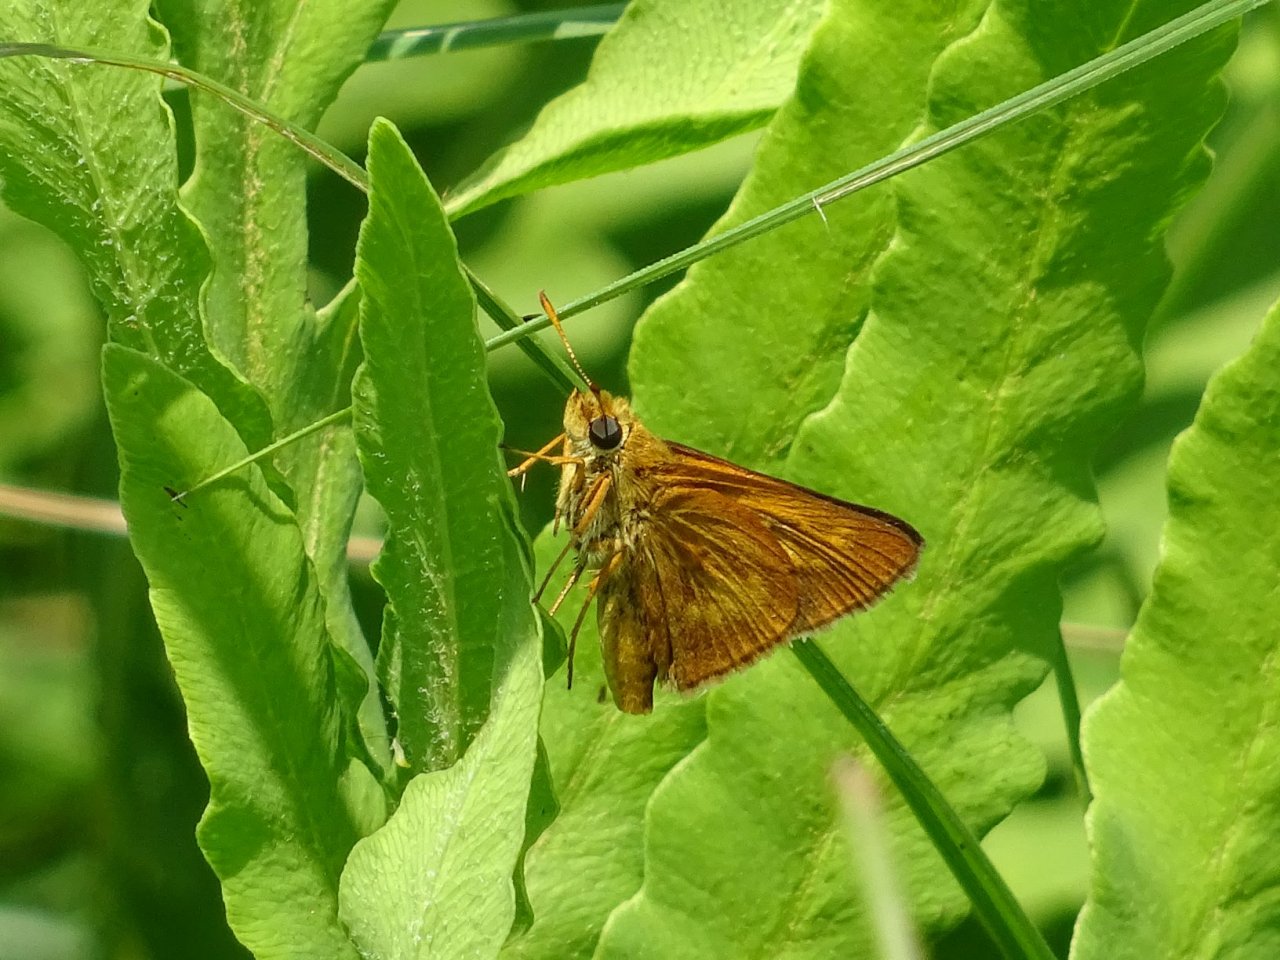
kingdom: Animalia
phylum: Arthropoda
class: Insecta
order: Lepidoptera
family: Hesperiidae
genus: Euphyes
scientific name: Euphyes conspicua
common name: Black Dash
